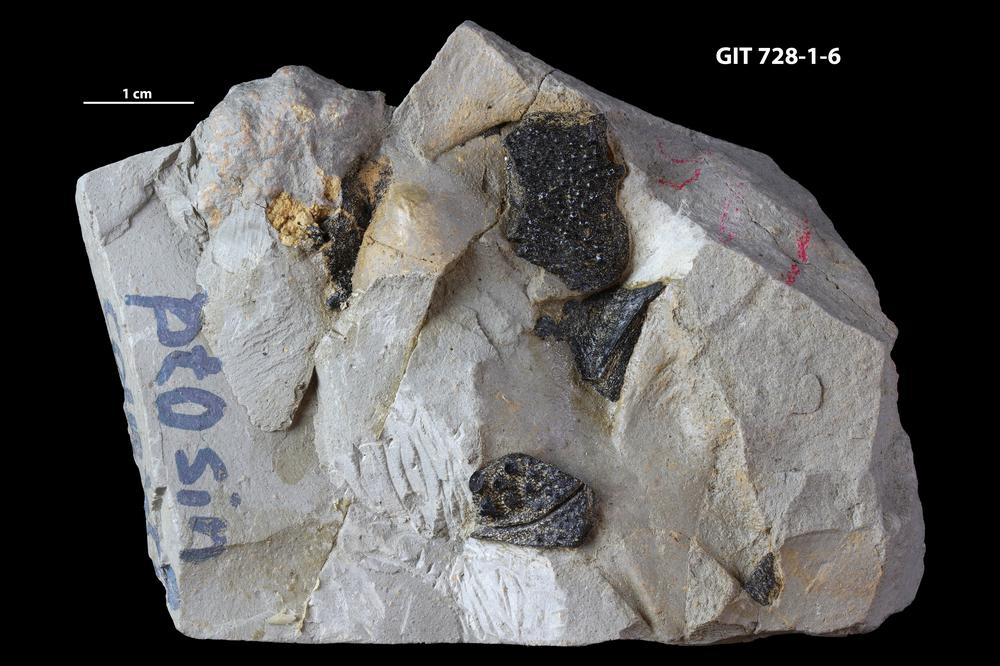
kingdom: Animalia
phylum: Chordata
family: Coccosteidae
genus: Watsonosteus
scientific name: Watsonosteus
